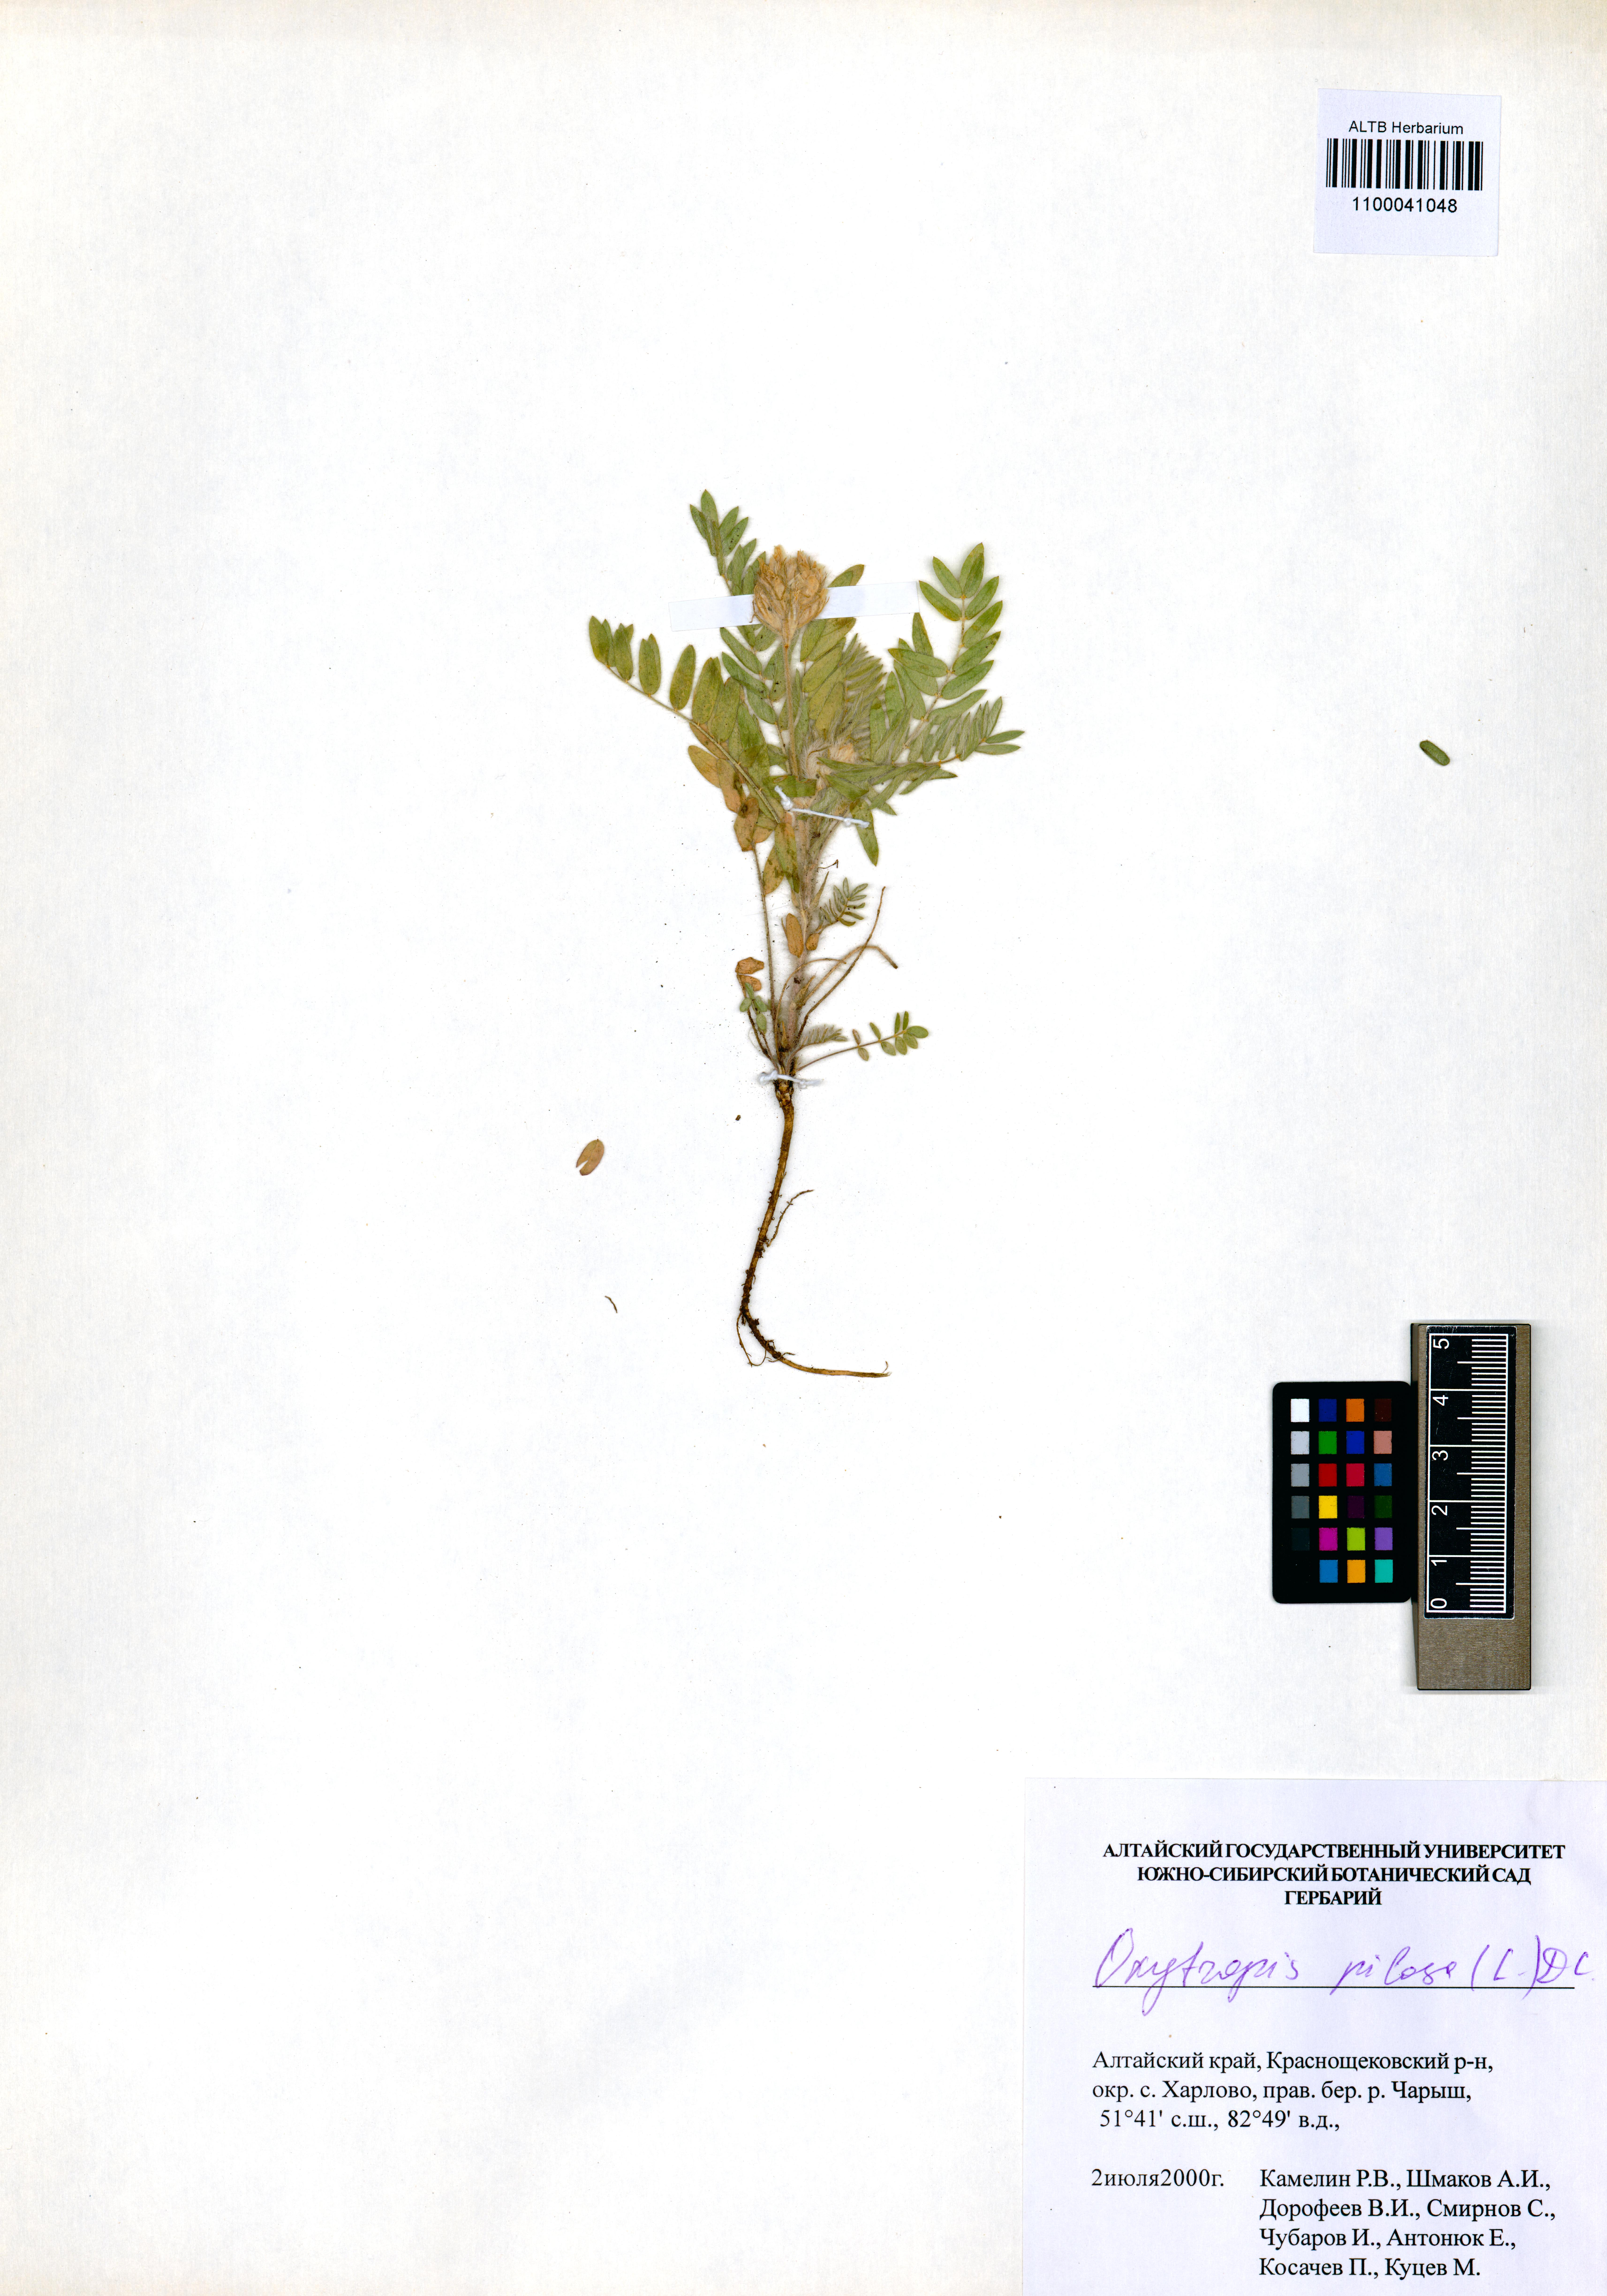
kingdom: Plantae
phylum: Tracheophyta
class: Magnoliopsida
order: Fabales
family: Fabaceae
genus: Oxytropis
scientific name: Oxytropis pilosa
